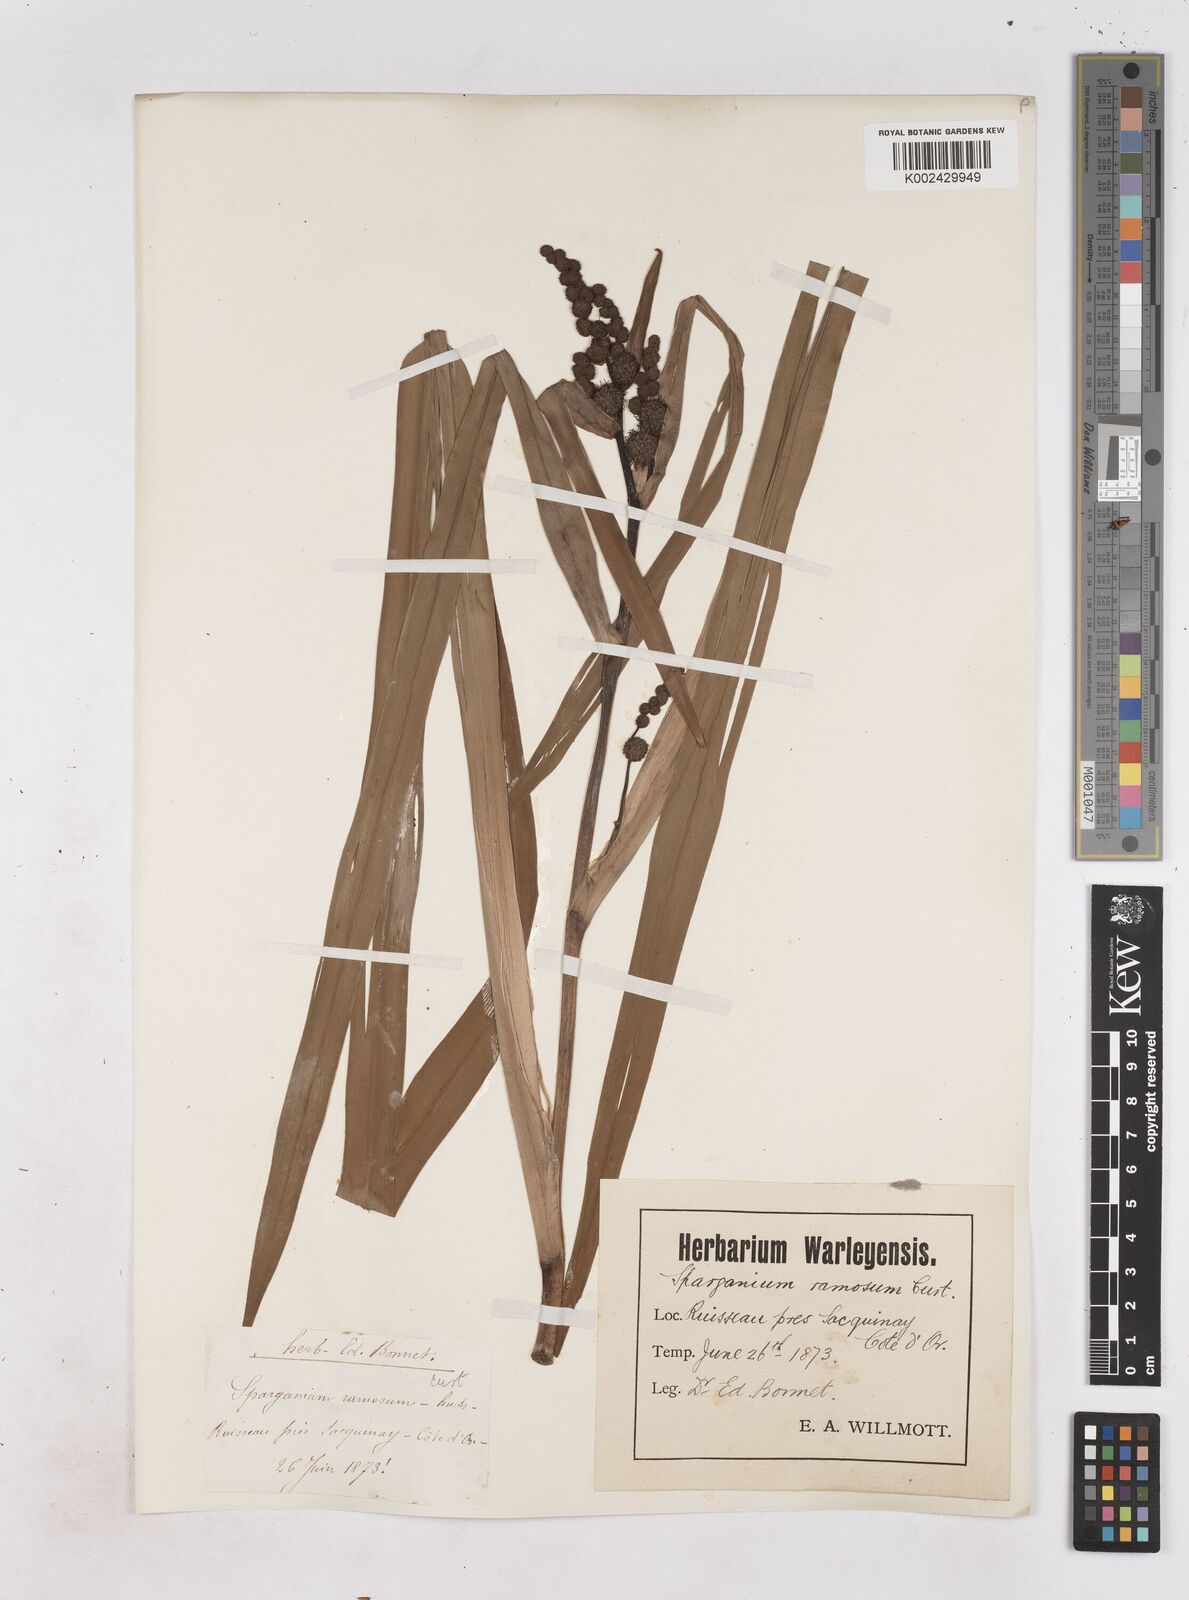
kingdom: Plantae
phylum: Tracheophyta
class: Liliopsida
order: Poales
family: Typhaceae
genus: Sparganium
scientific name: Sparganium erectum
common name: Branched bur-reed
